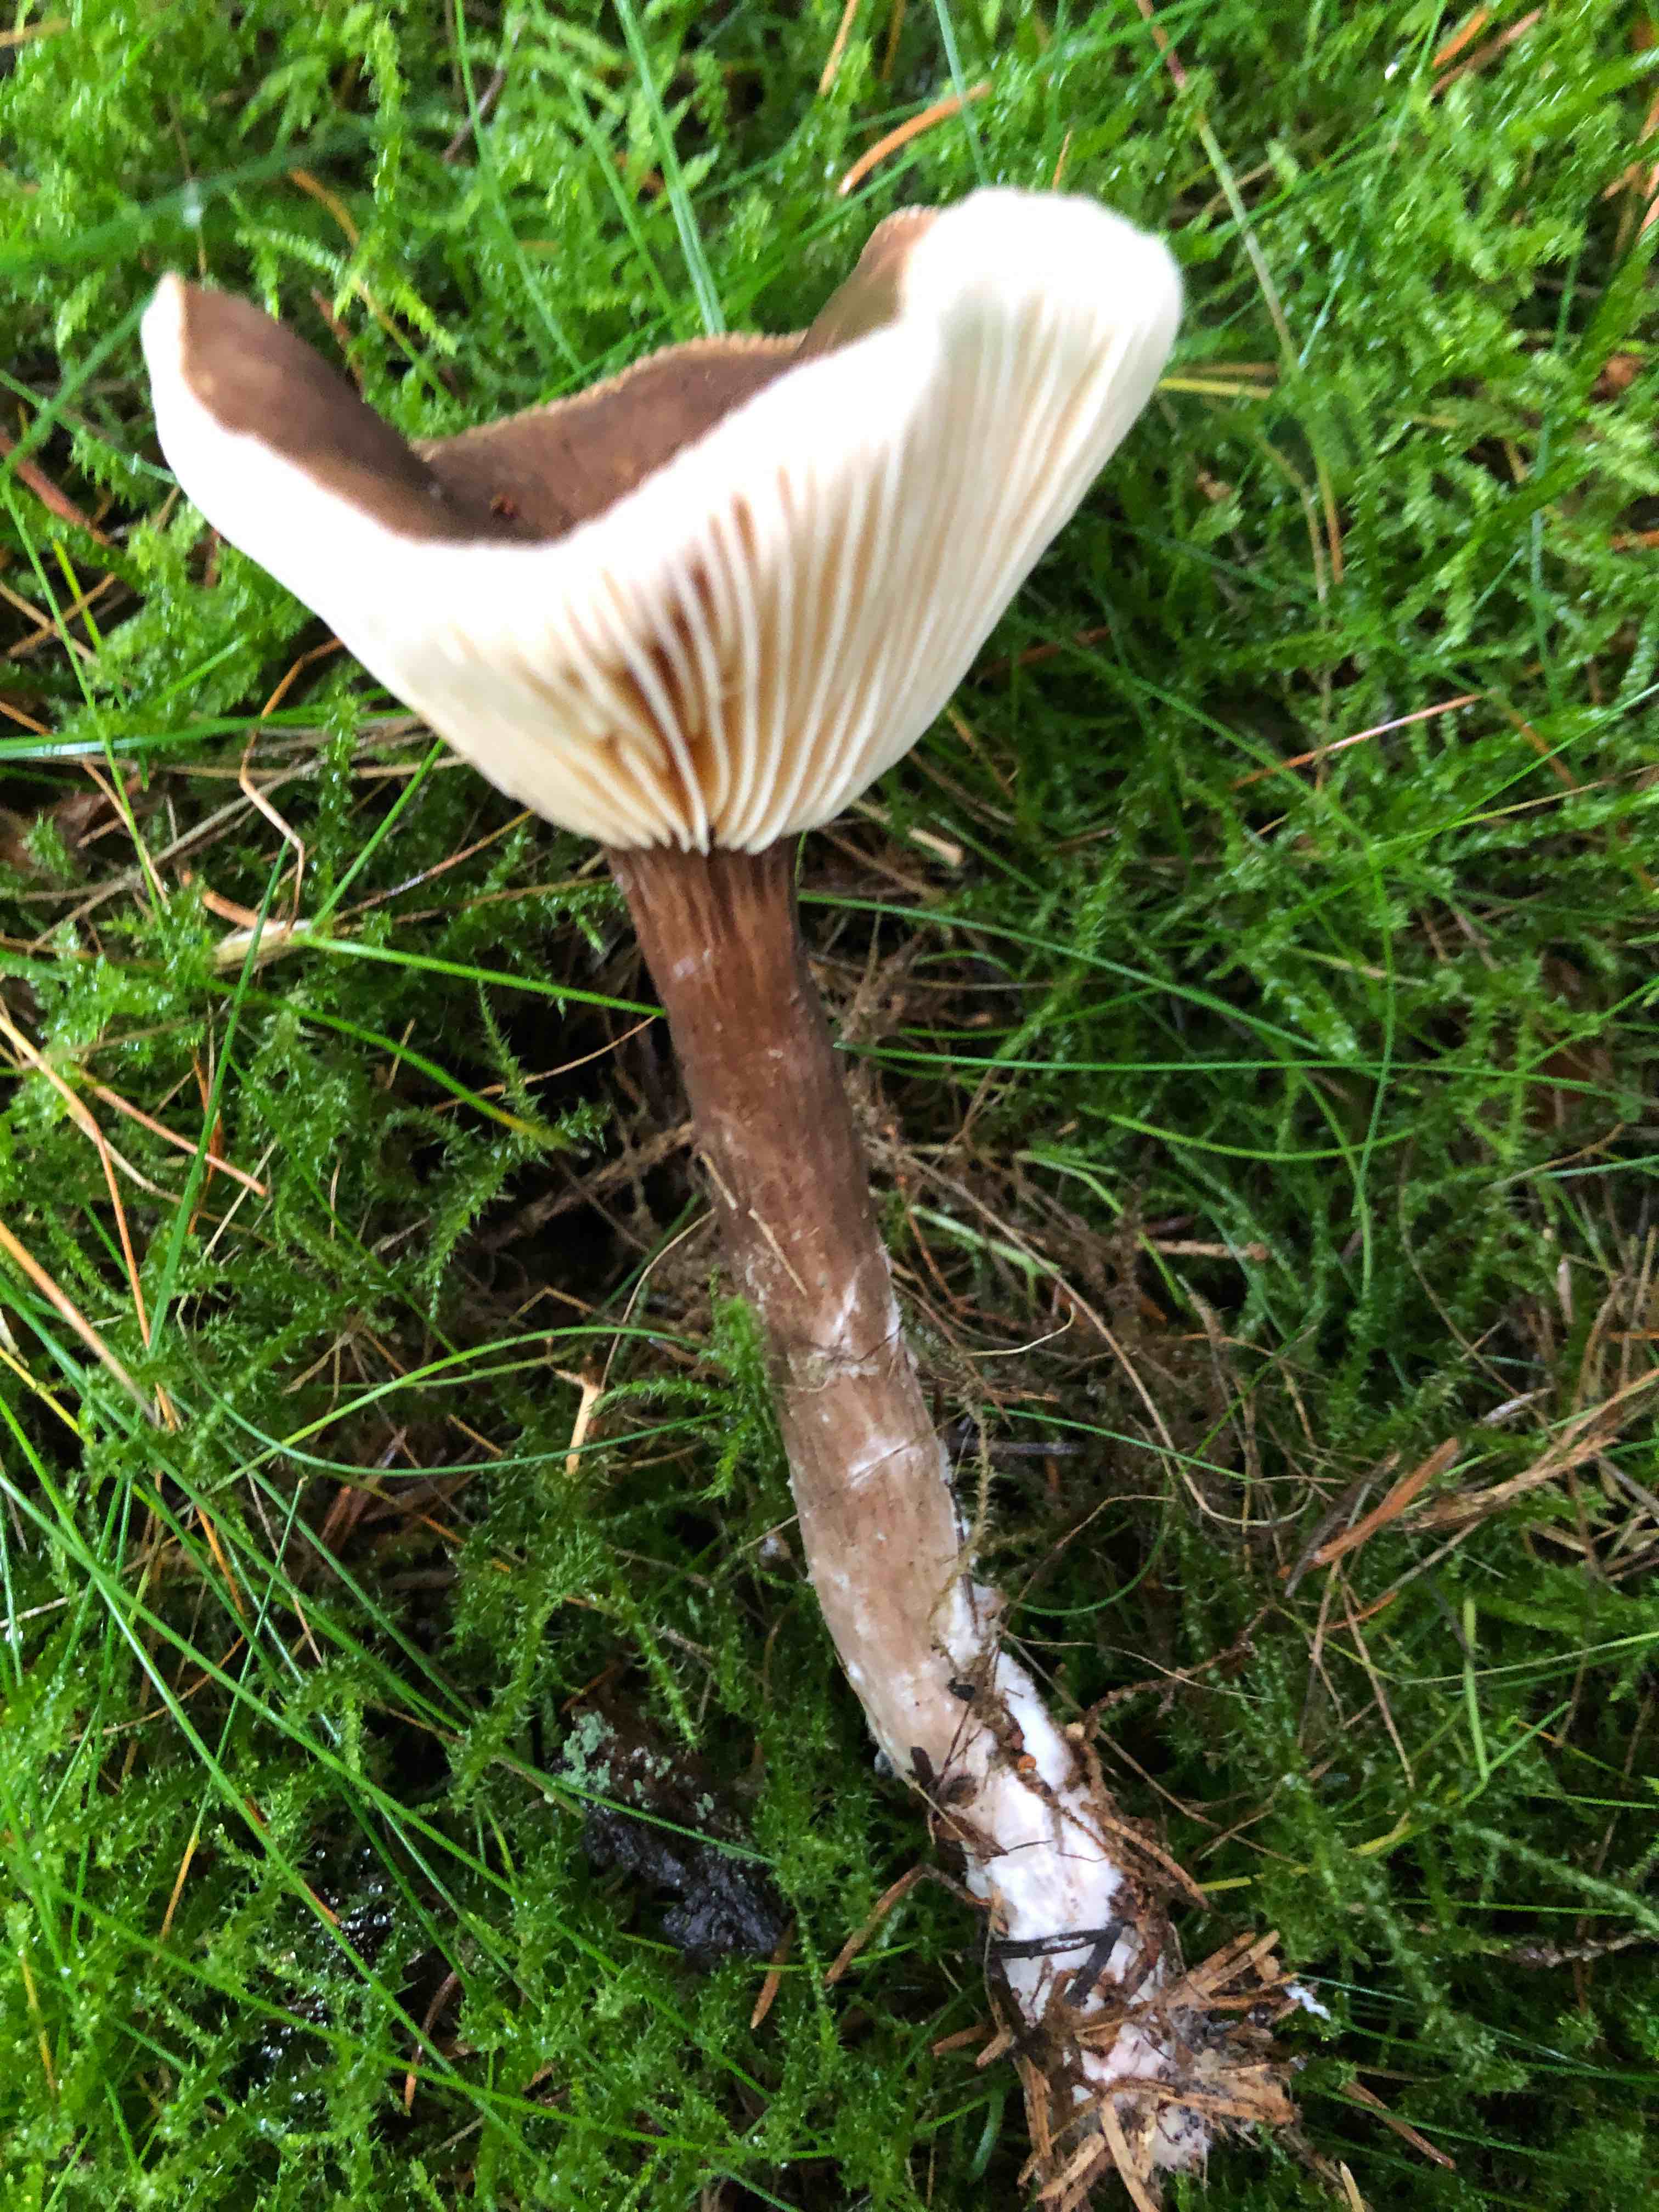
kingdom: Fungi
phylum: Basidiomycota
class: Agaricomycetes
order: Russulales
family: Russulaceae
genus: Lactarius
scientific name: Lactarius lignyotus
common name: fløjls-mælkehat
